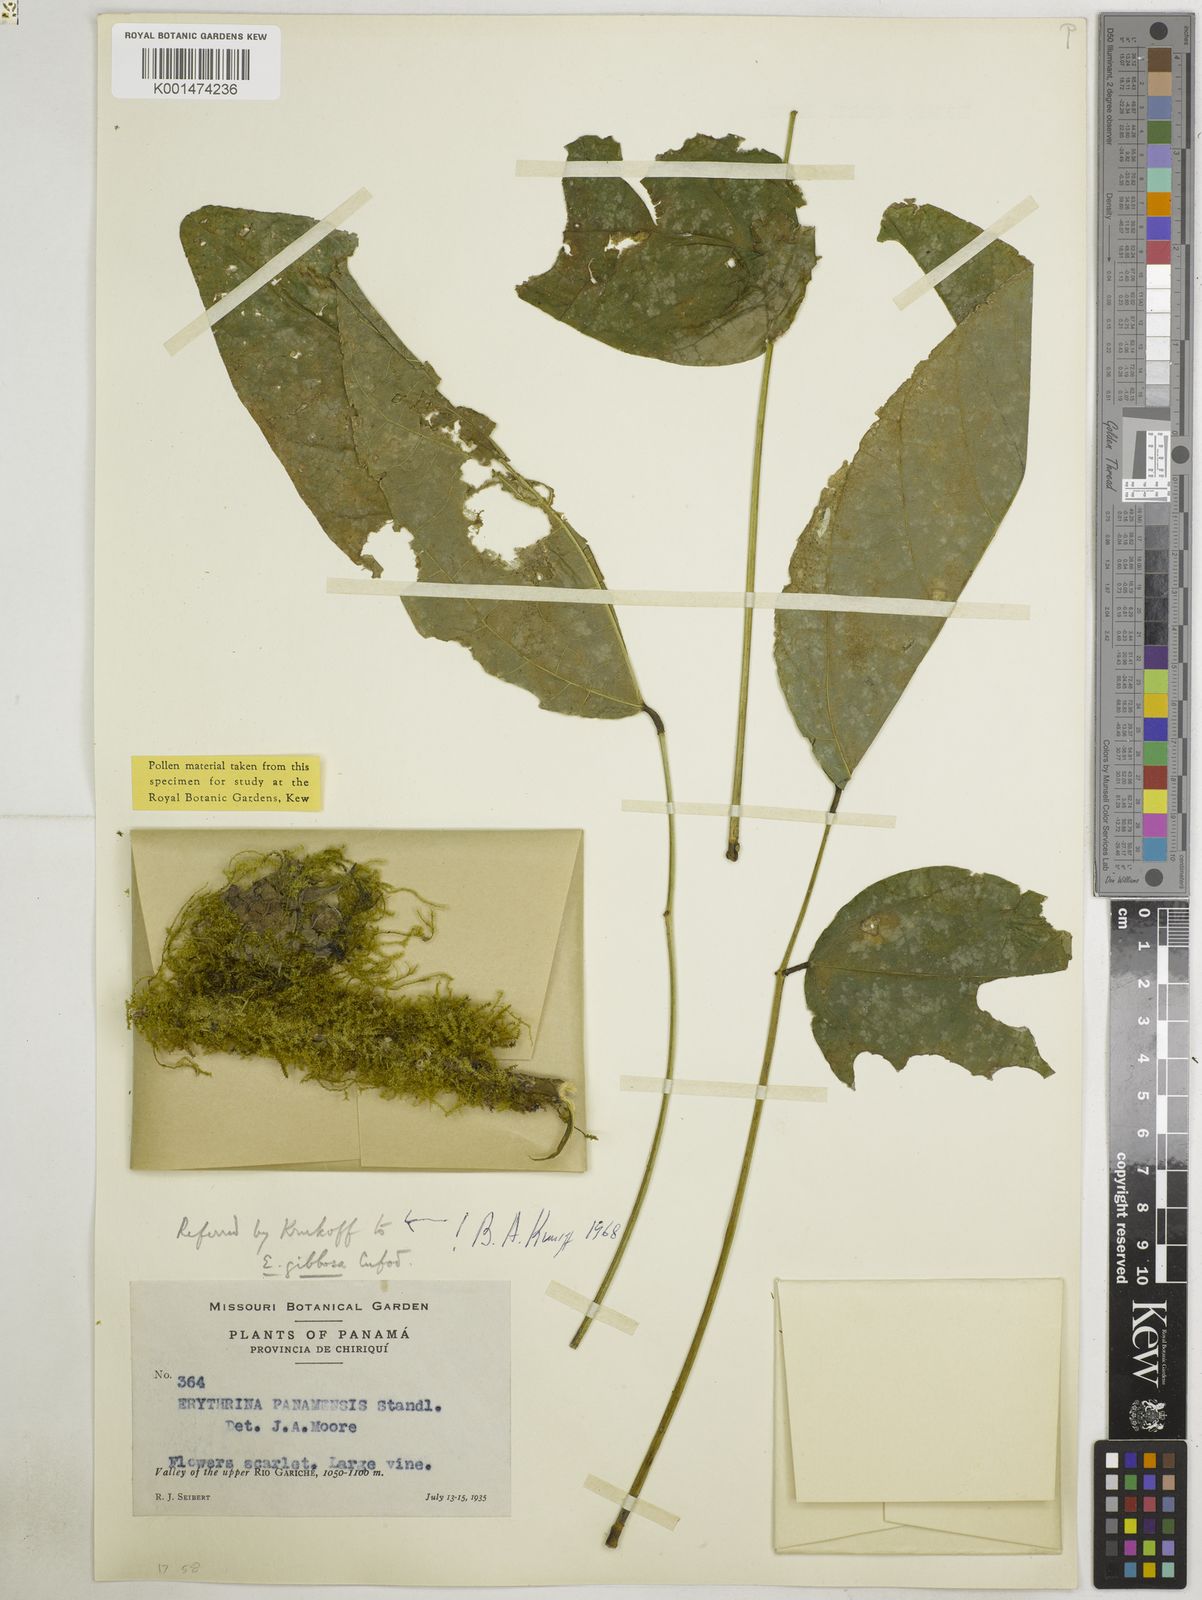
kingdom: Plantae
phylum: Tracheophyta
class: Magnoliopsida
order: Fabales
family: Fabaceae
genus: Erythrina
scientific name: Erythrina gibbosa
